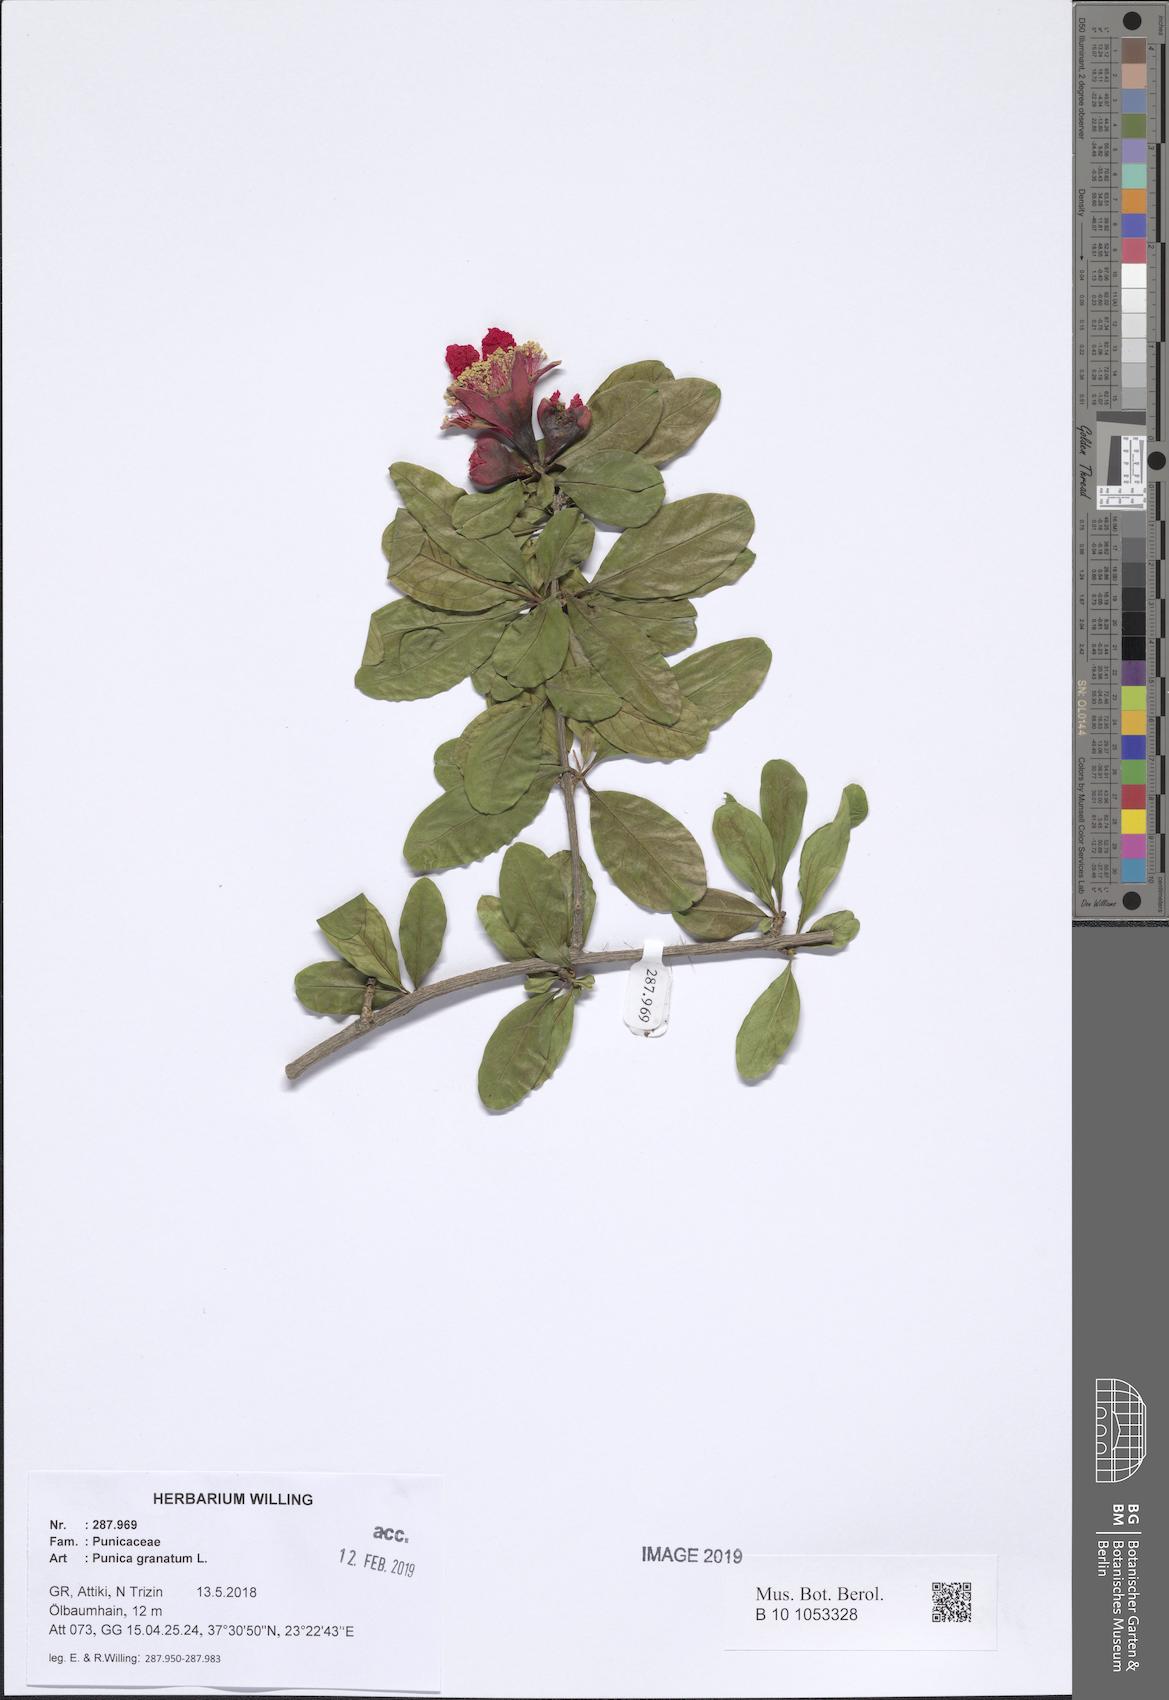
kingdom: Plantae
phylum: Tracheophyta
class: Magnoliopsida
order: Myrtales
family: Lythraceae
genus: Punica
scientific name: Punica granatum
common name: Pomegranate
